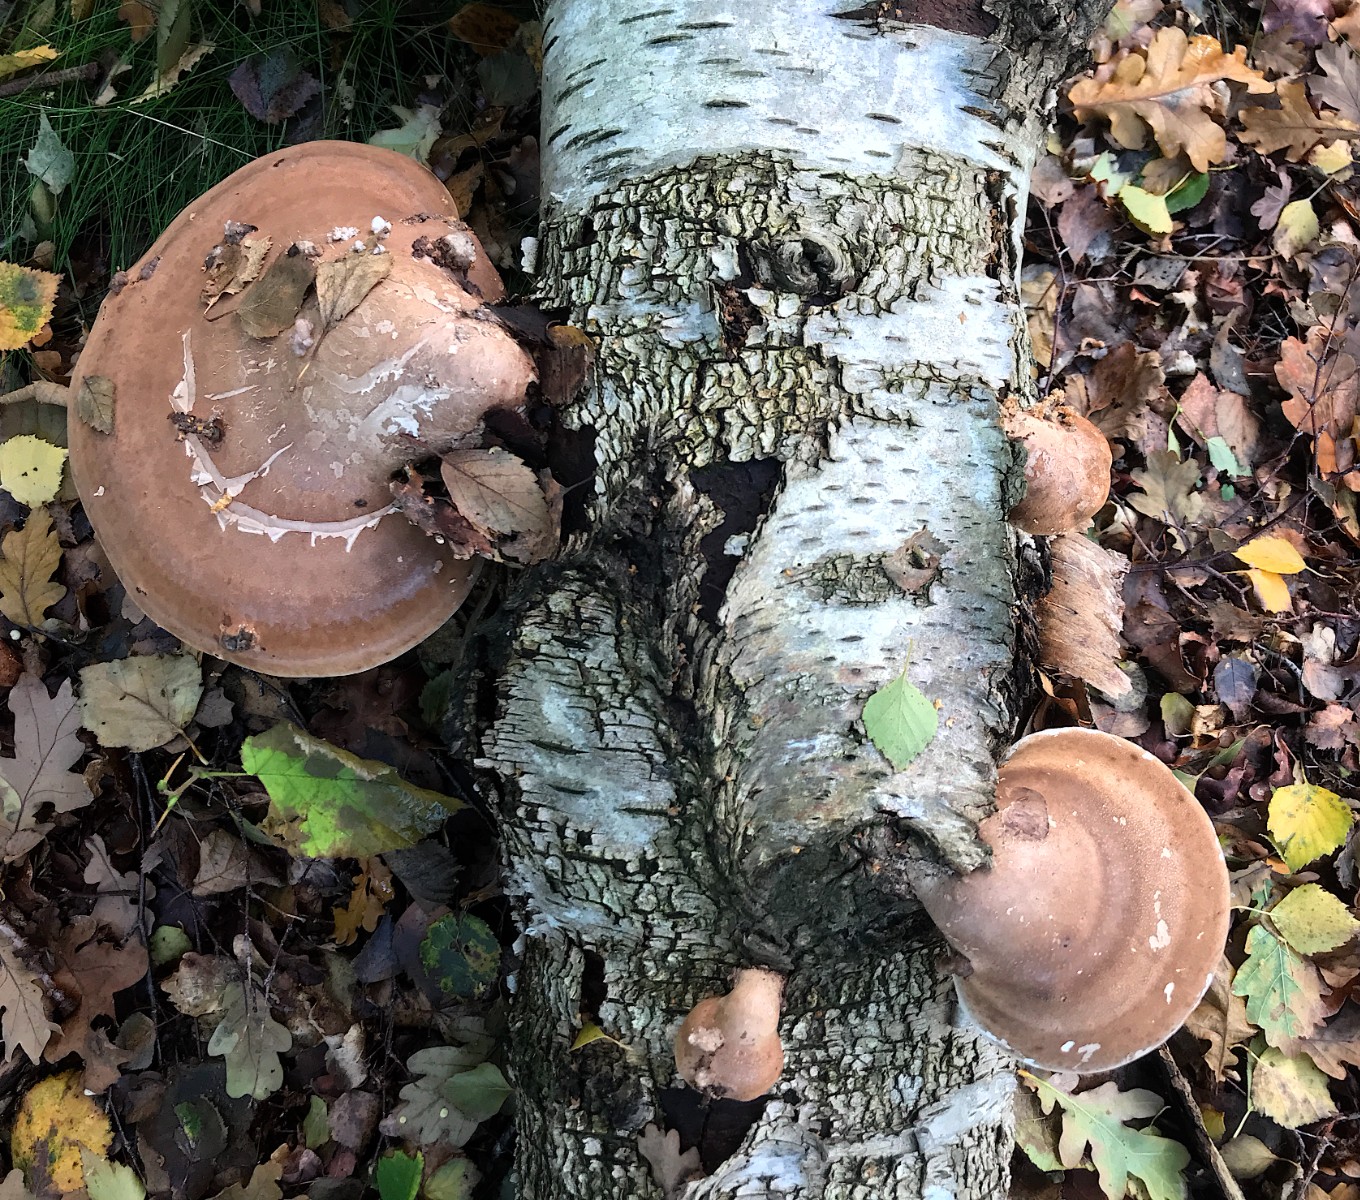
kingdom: Fungi
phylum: Basidiomycota
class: Agaricomycetes
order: Polyporales
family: Fomitopsidaceae
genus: Fomitopsis
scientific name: Fomitopsis betulina
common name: birkeporesvamp
